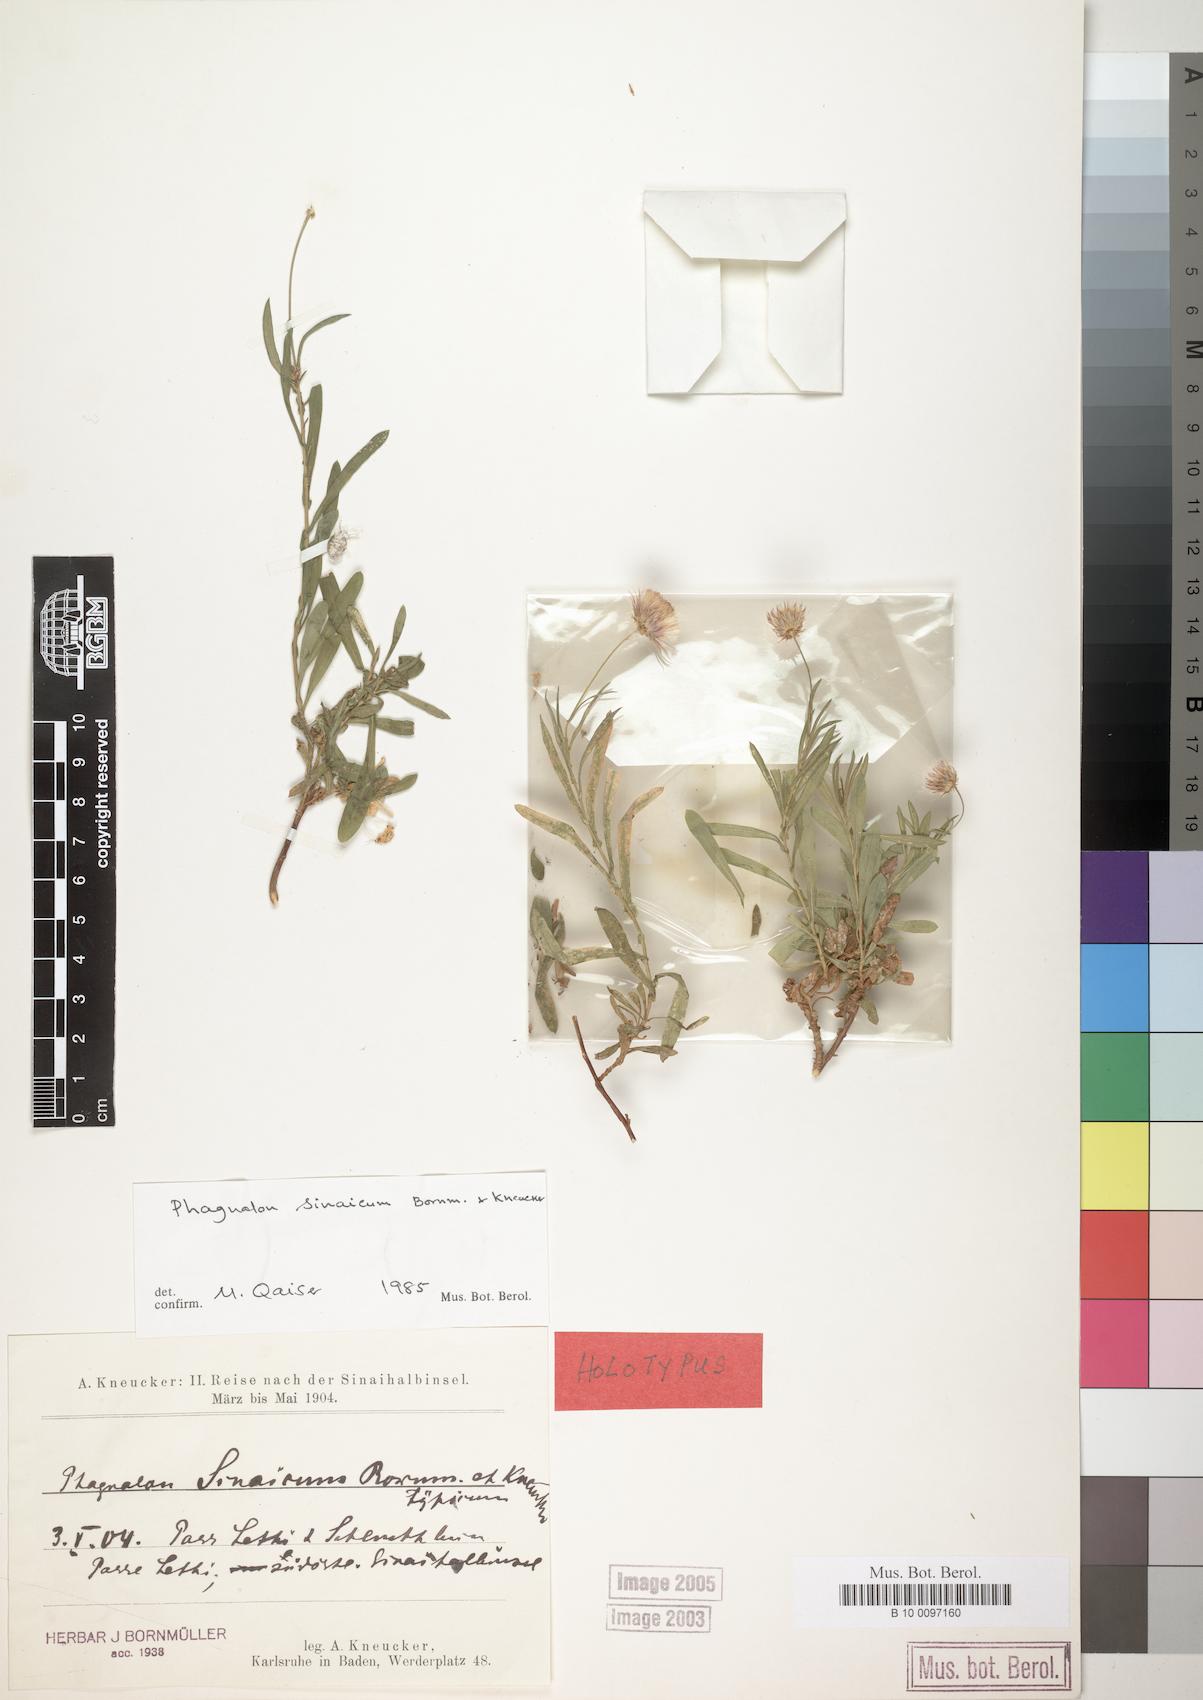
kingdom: Plantae
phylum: Tracheophyta
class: Magnoliopsida
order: Asterales
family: Asteraceae
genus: Phagnalon
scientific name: Phagnalon sinaicum
